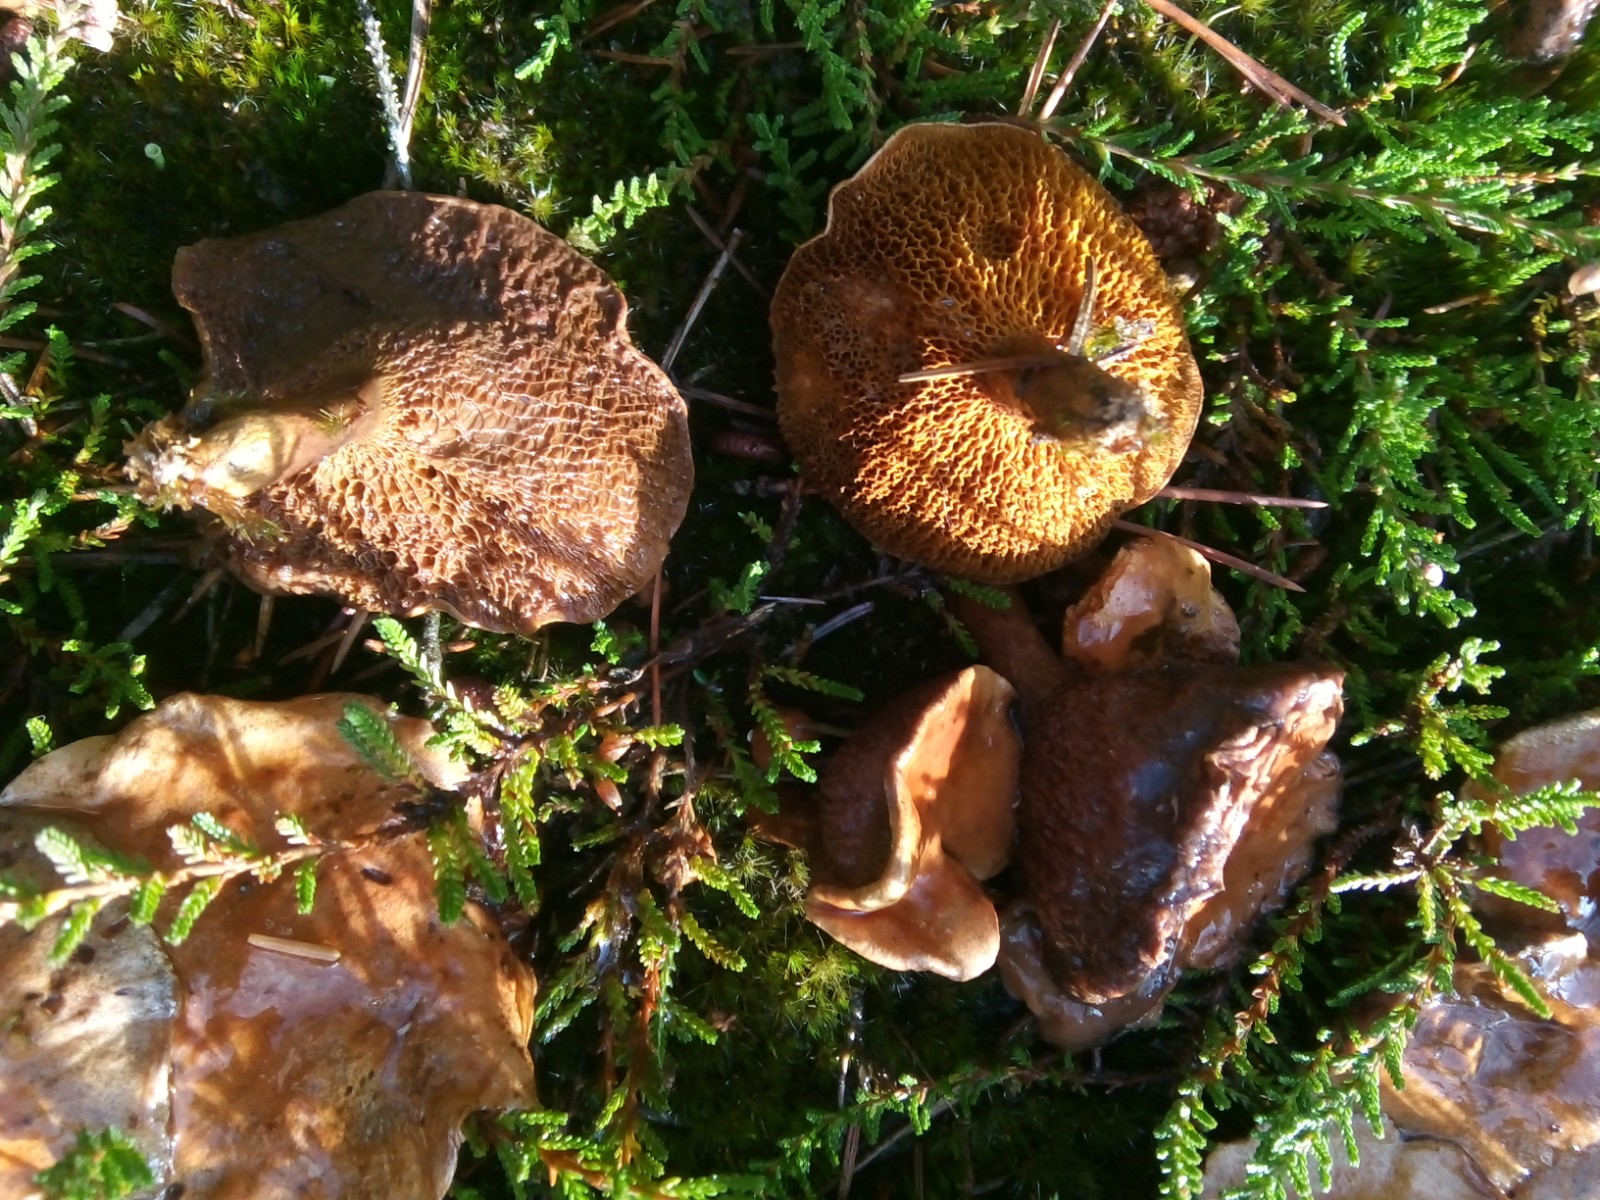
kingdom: Fungi
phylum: Basidiomycota
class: Agaricomycetes
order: Boletales
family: Suillaceae
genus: Suillus
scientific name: Suillus bovinus
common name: grovporet slimrørhat
